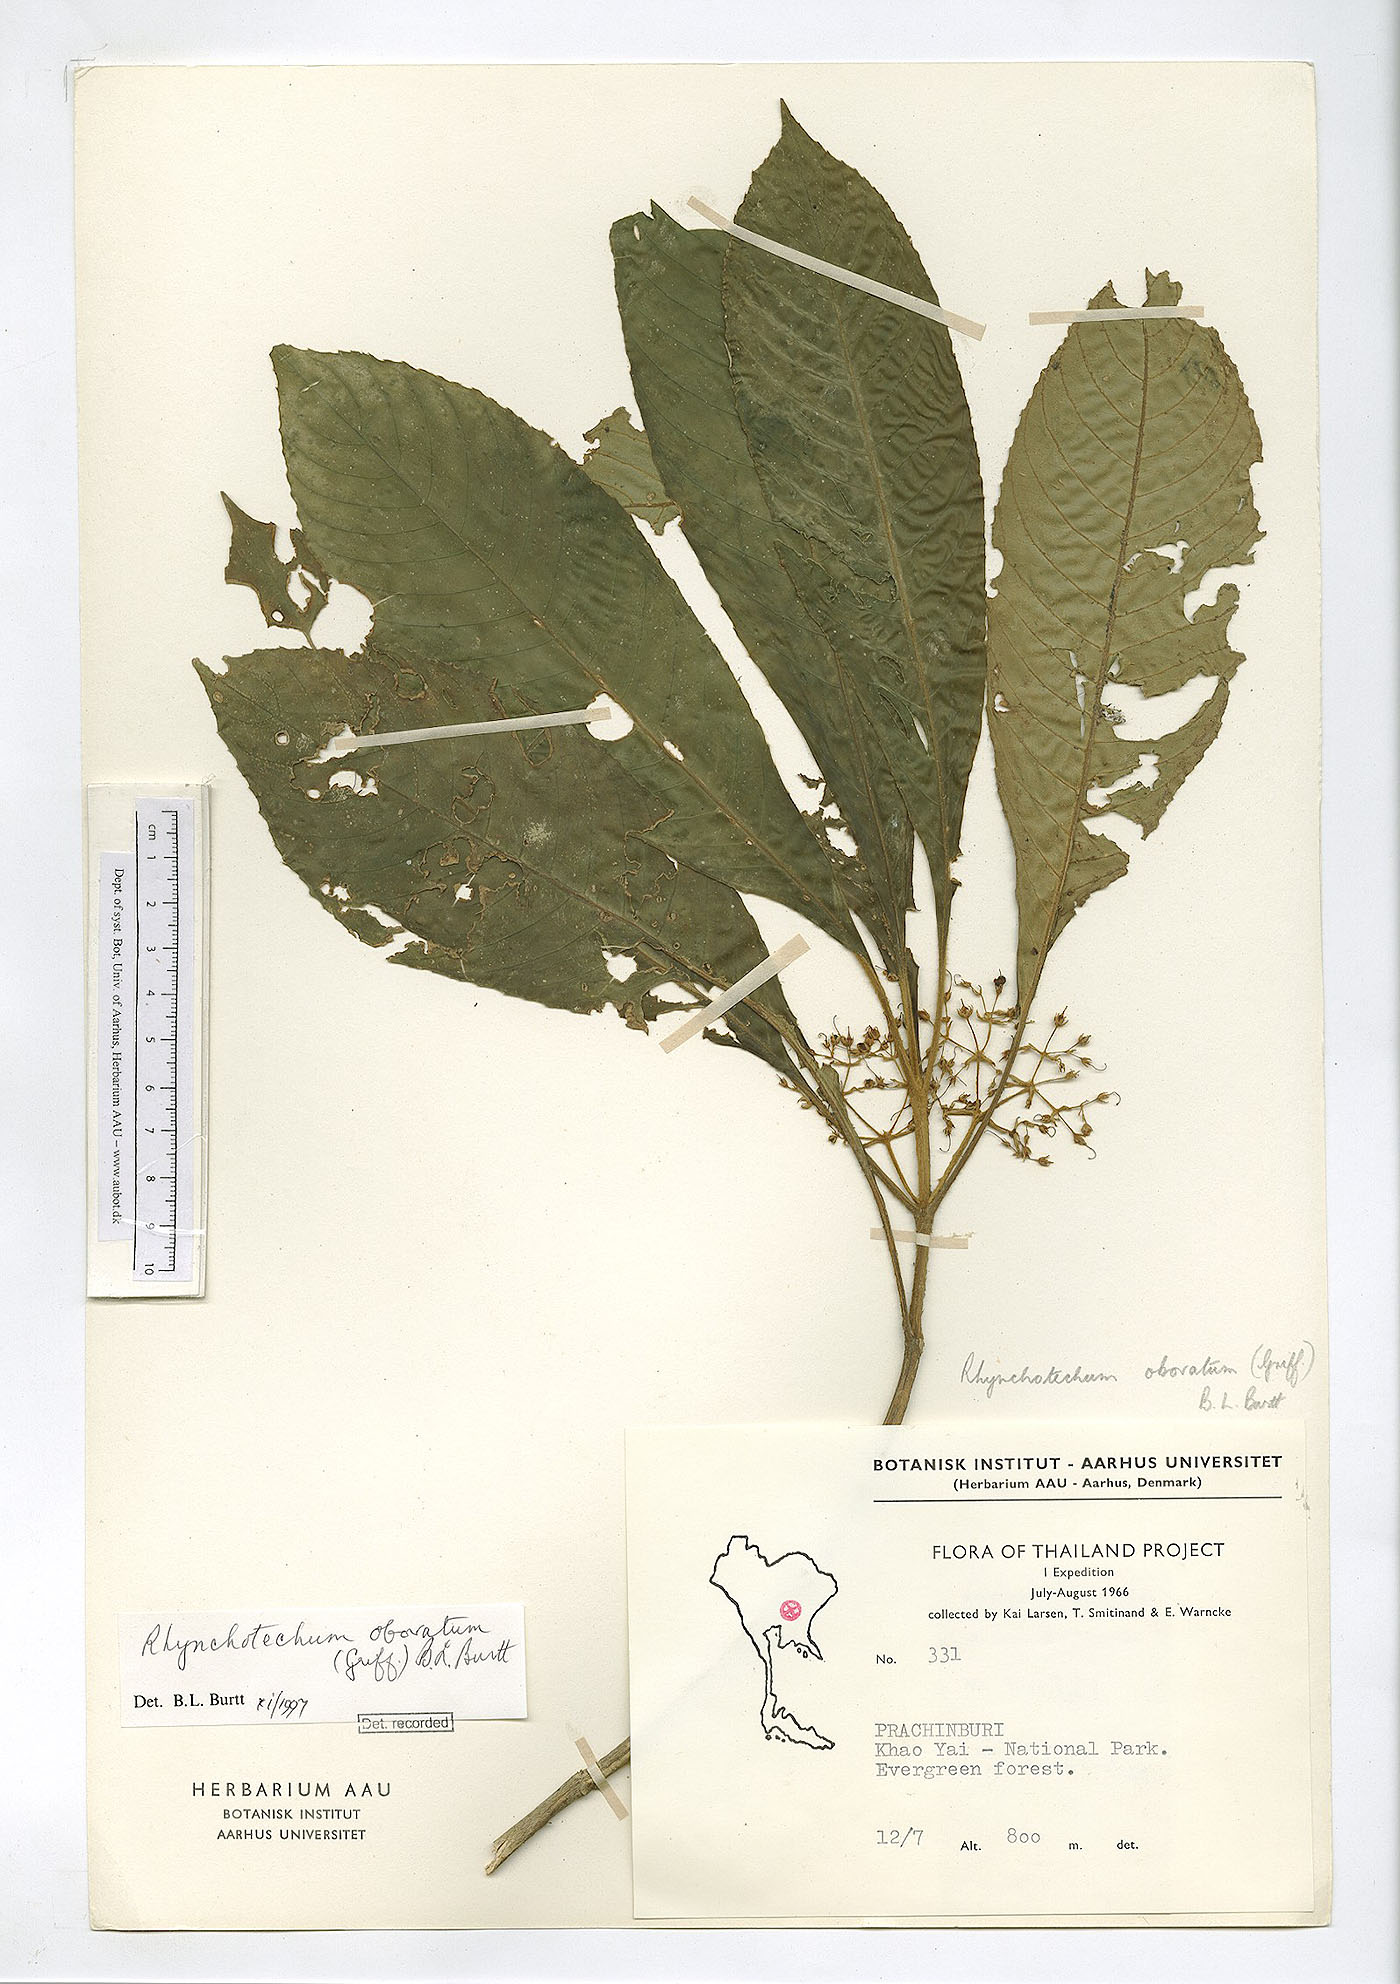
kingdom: Plantae
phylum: Tracheophyta
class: Magnoliopsida
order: Lamiales
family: Gesneriaceae
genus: Rhynchotechum
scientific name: Rhynchotechum obovatum
